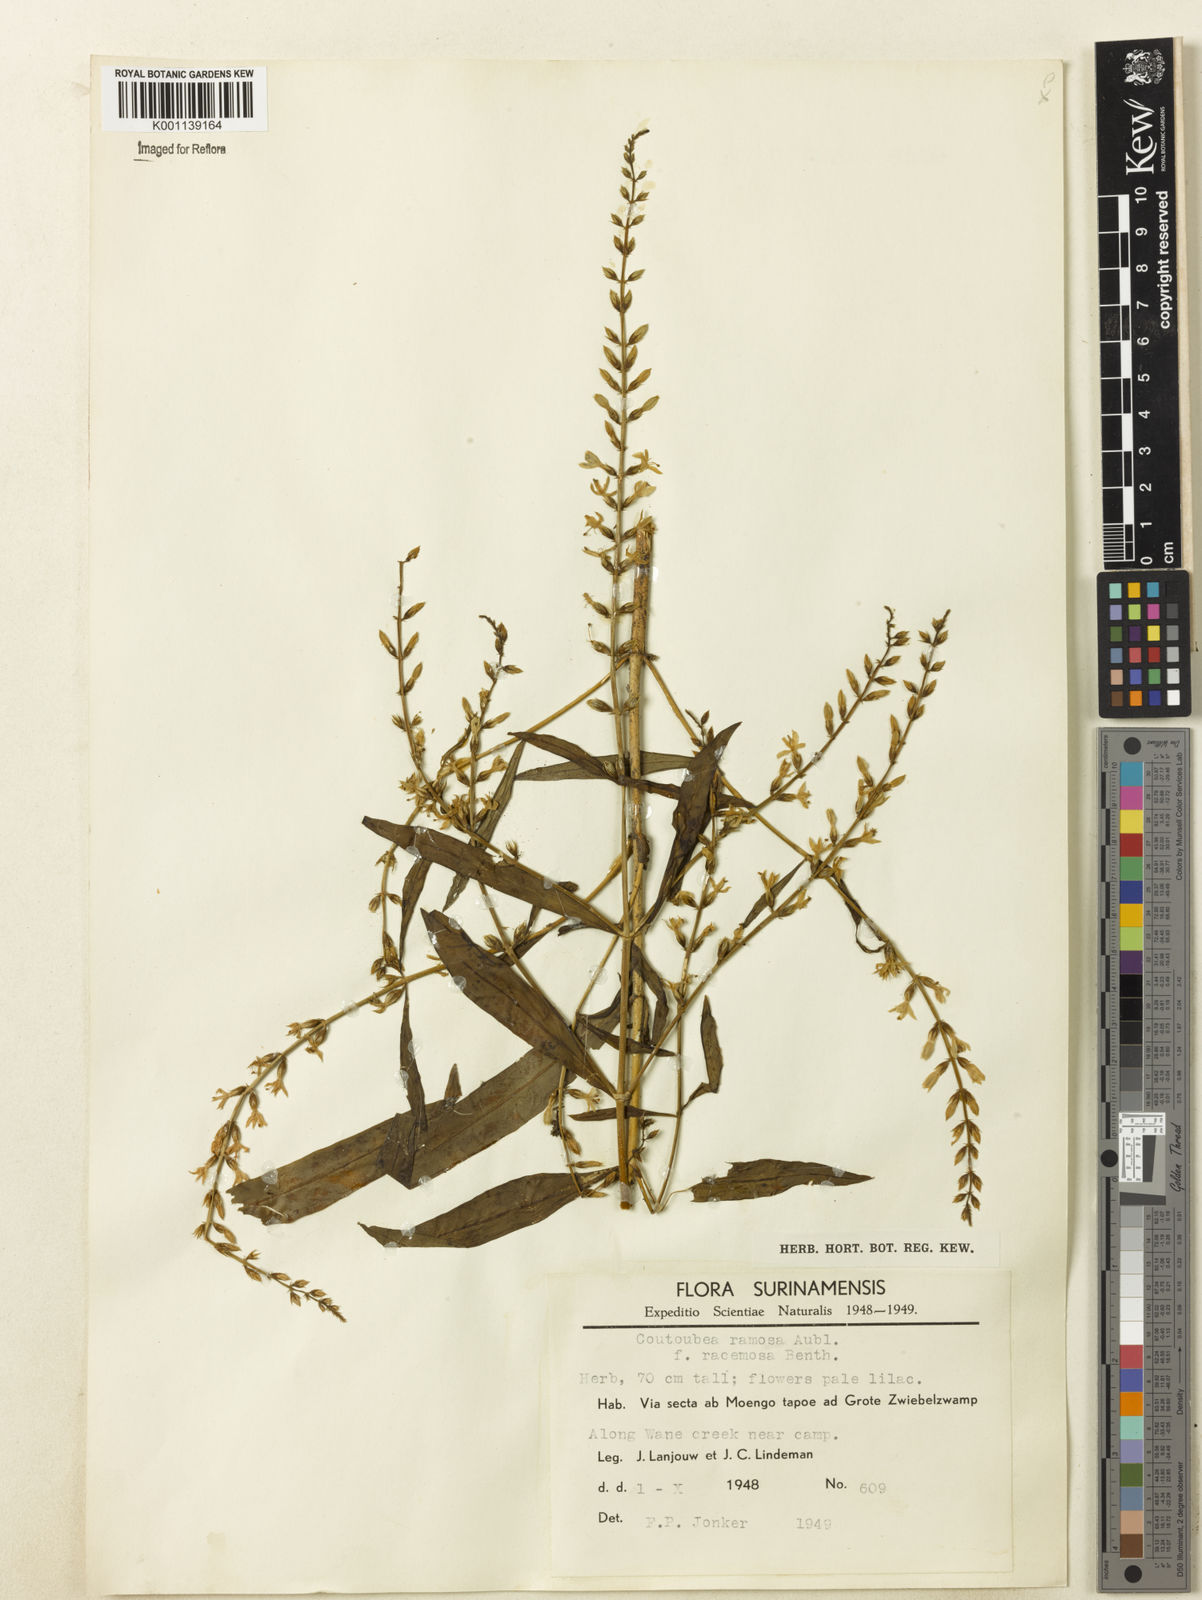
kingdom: Plantae
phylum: Tracheophyta
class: Magnoliopsida
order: Gentianales
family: Gentianaceae
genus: Coutoubea
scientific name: Coutoubea ramosa
